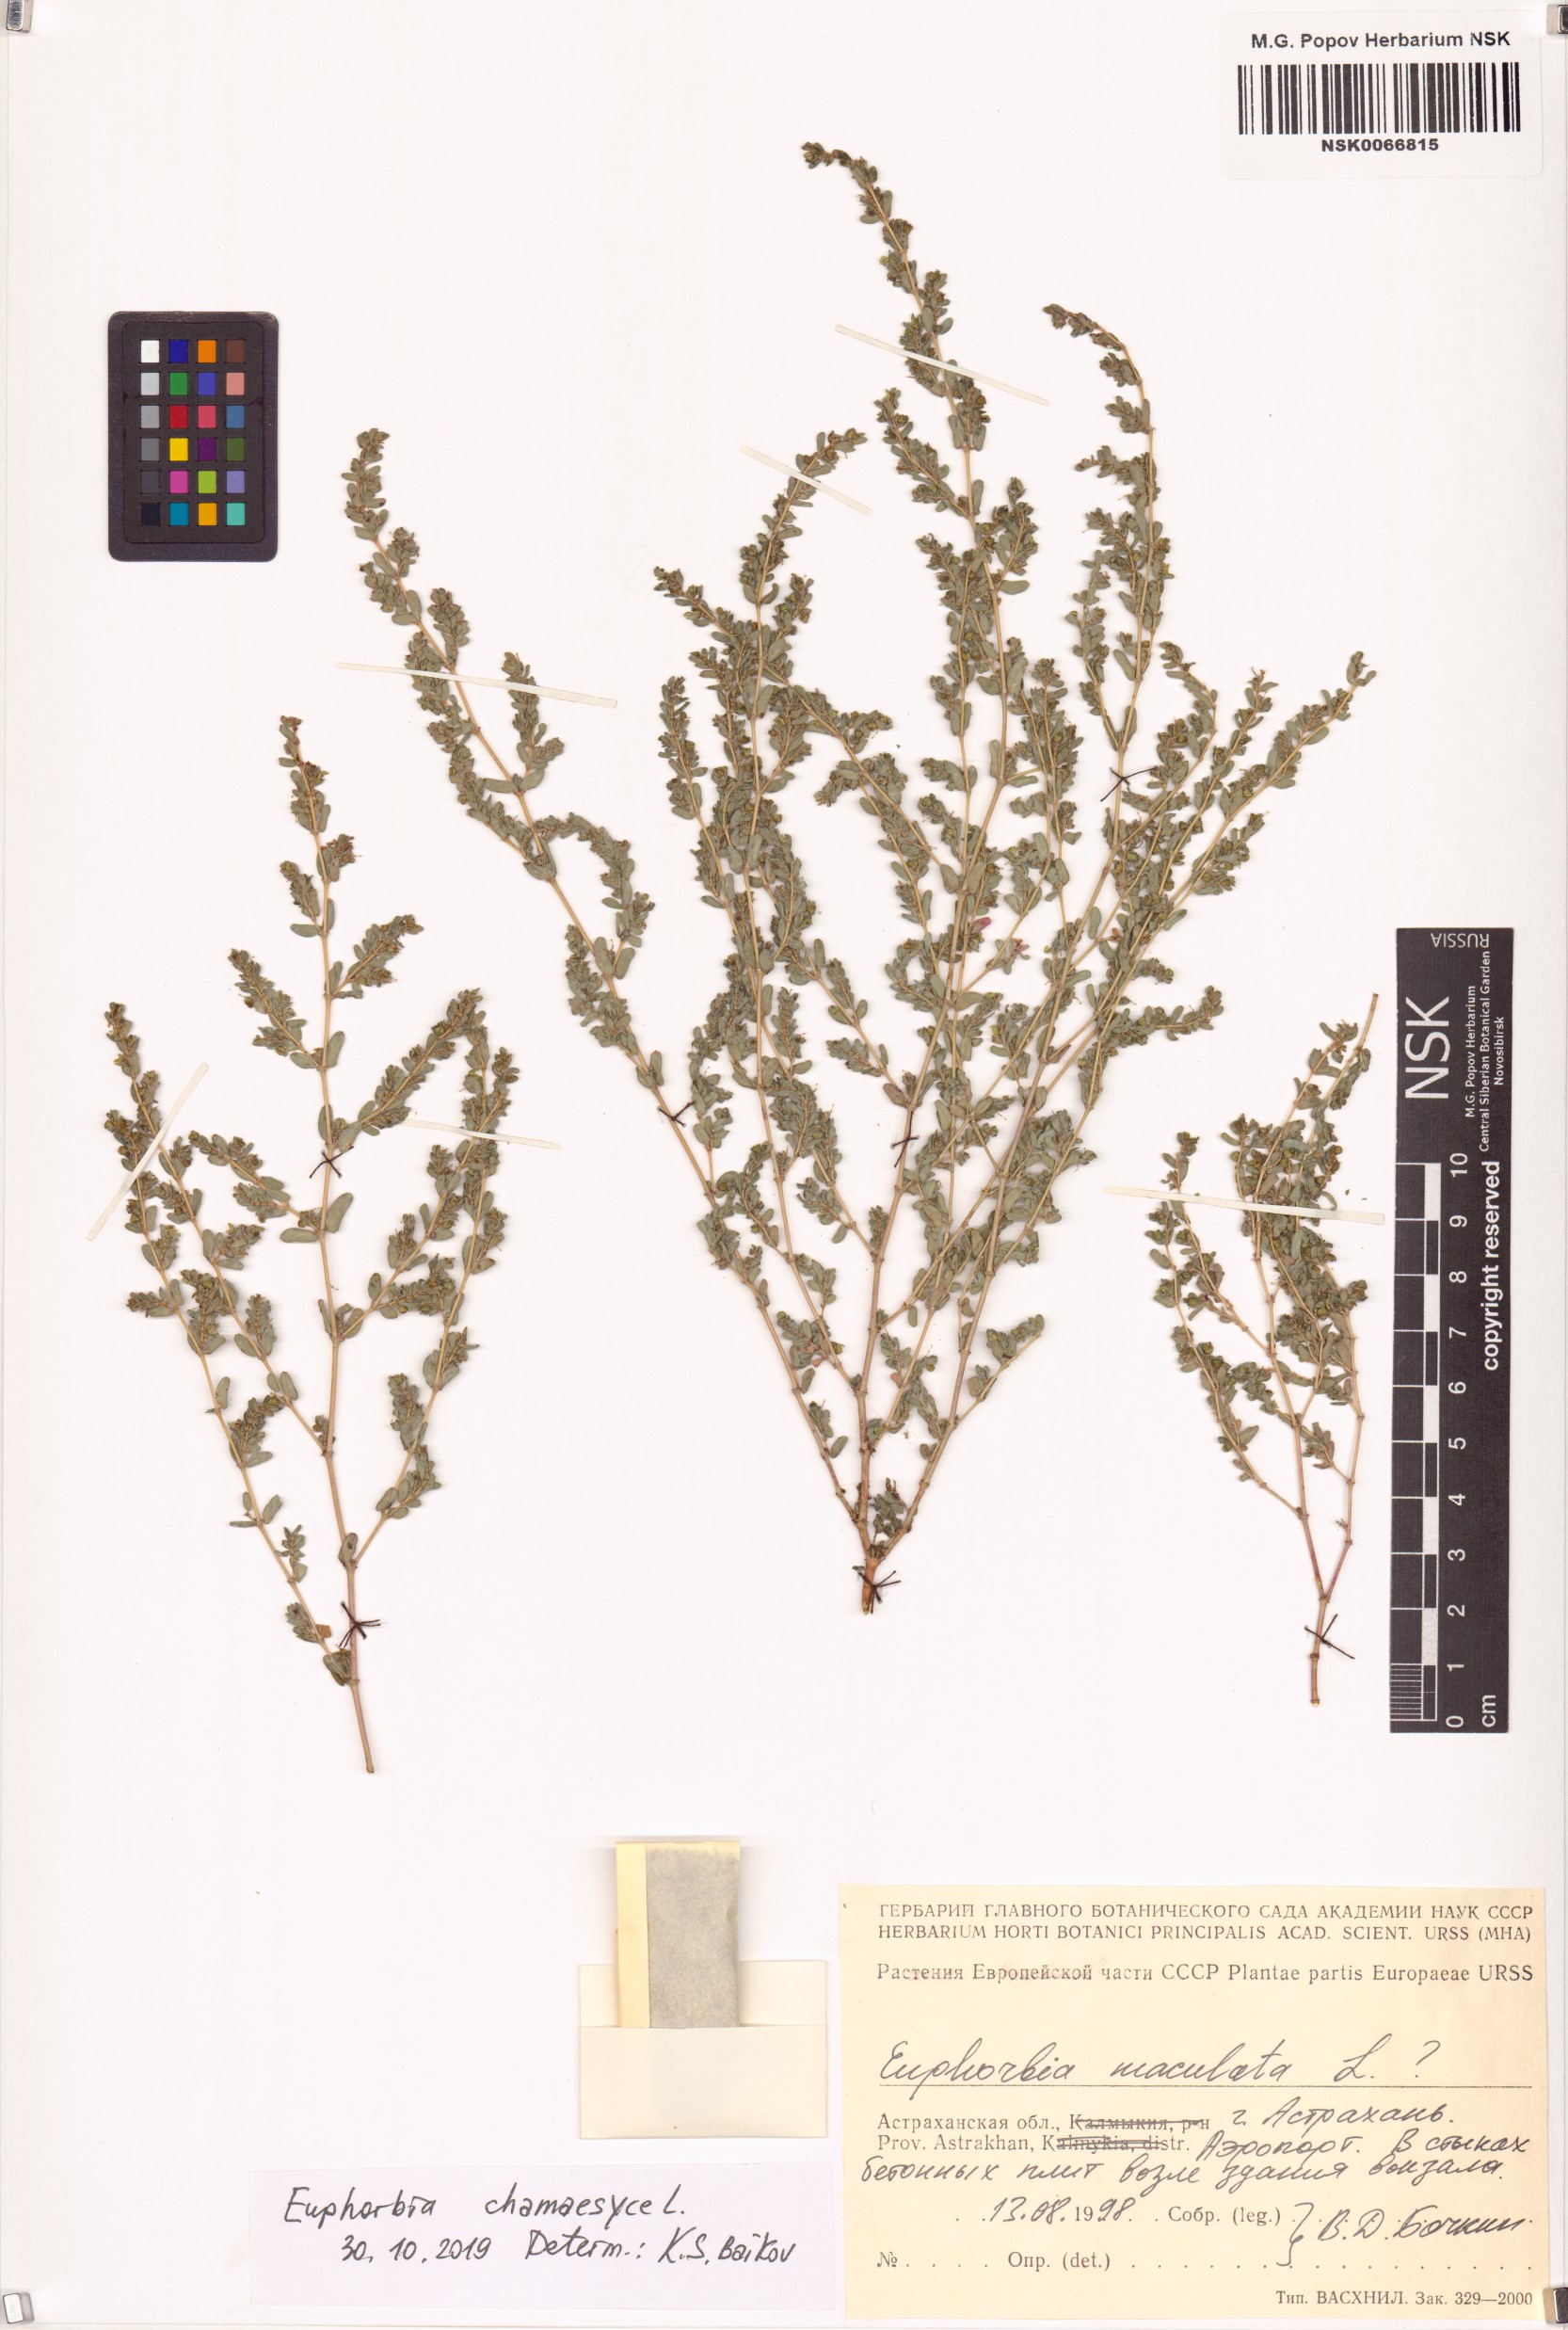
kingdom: Plantae
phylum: Tracheophyta
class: Magnoliopsida
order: Malpighiales
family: Euphorbiaceae
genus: Euphorbia
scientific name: Euphorbia chamaesyce
